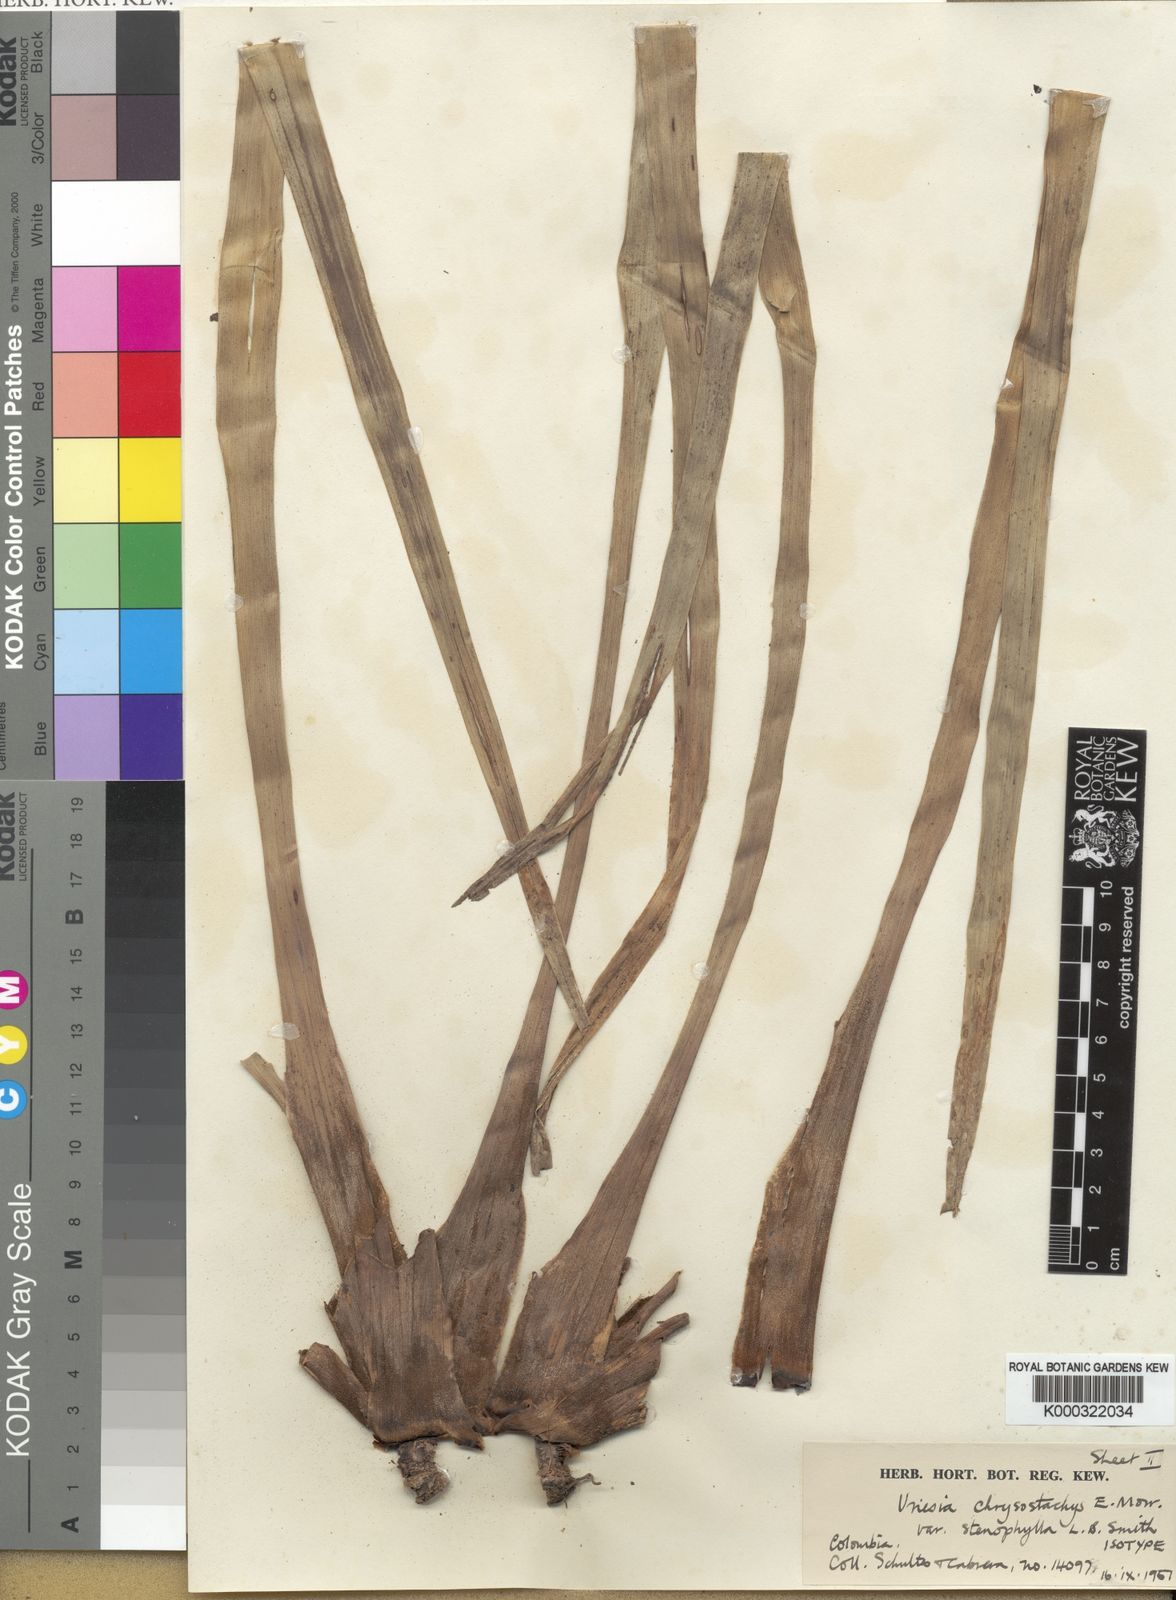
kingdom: Plantae
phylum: Tracheophyta
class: Liliopsida
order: Poales
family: Bromeliaceae
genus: Goudaea
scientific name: Goudaea chrysostachys
